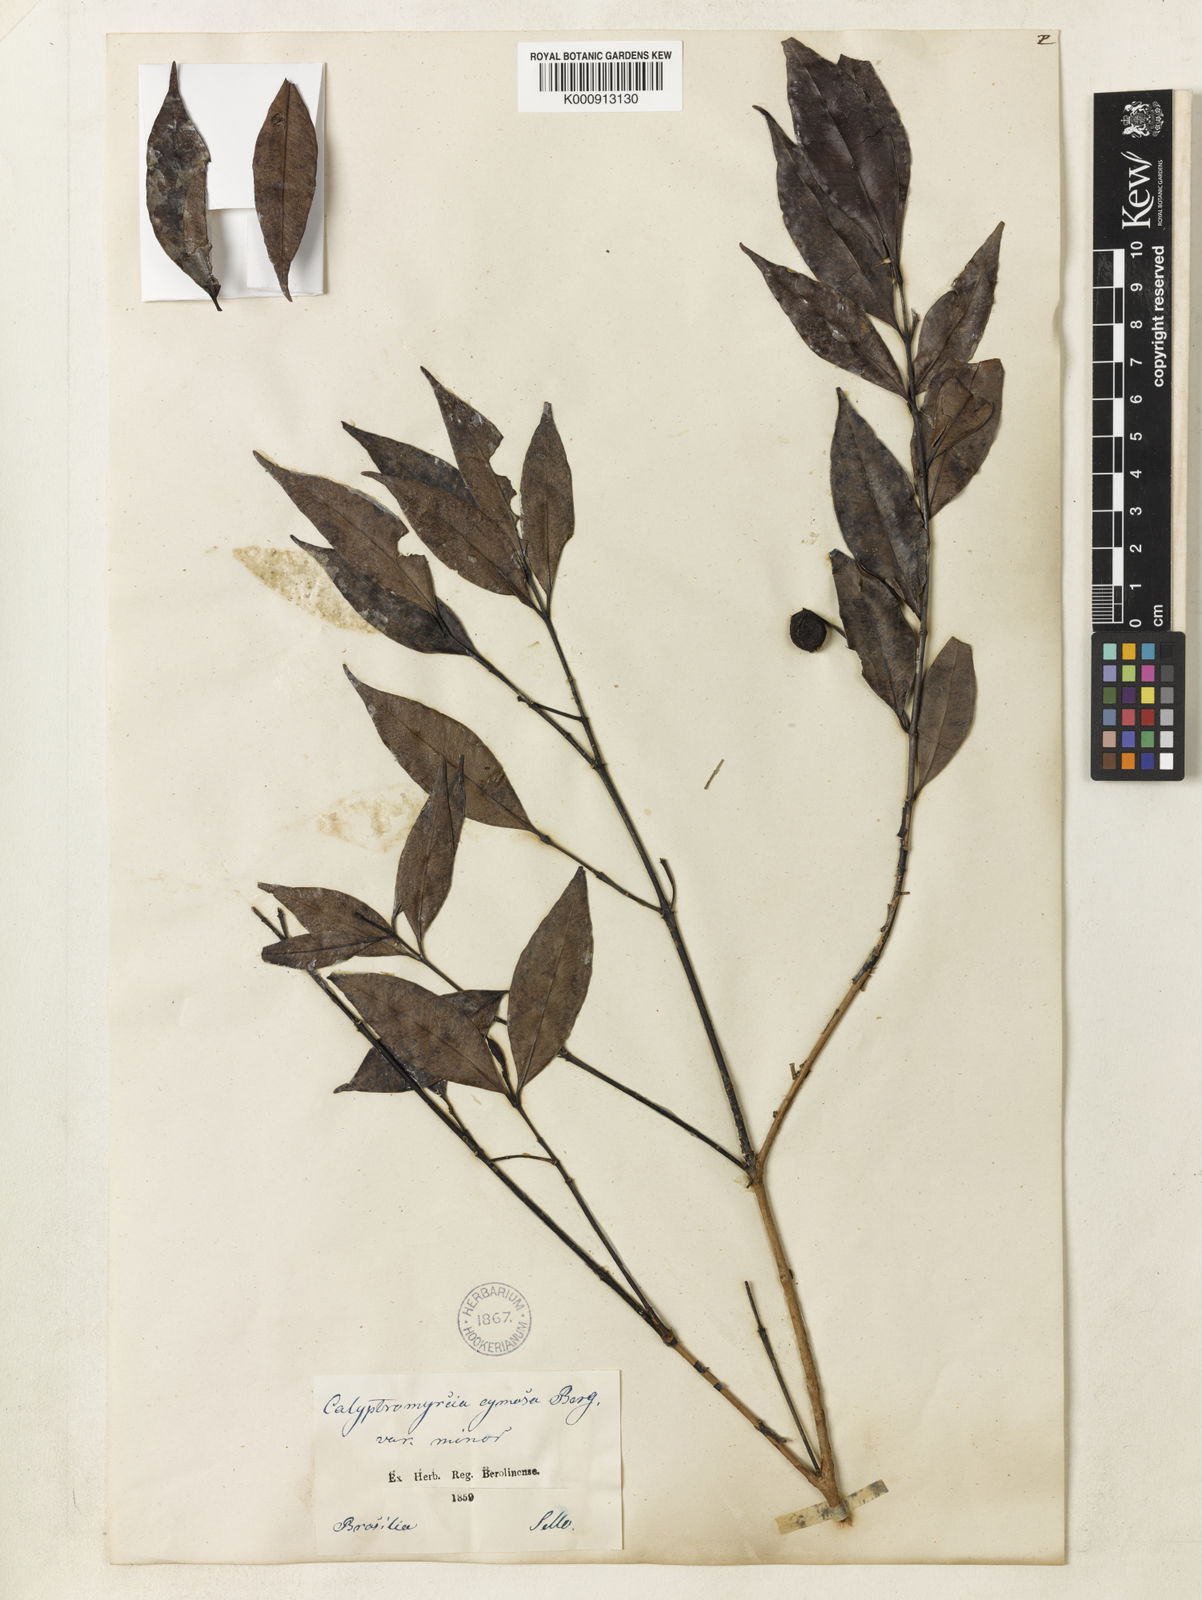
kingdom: Plantae
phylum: Tracheophyta
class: Magnoliopsida
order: Myrtales
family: Myrtaceae
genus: Myrcia
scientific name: Myrcia guianensis
